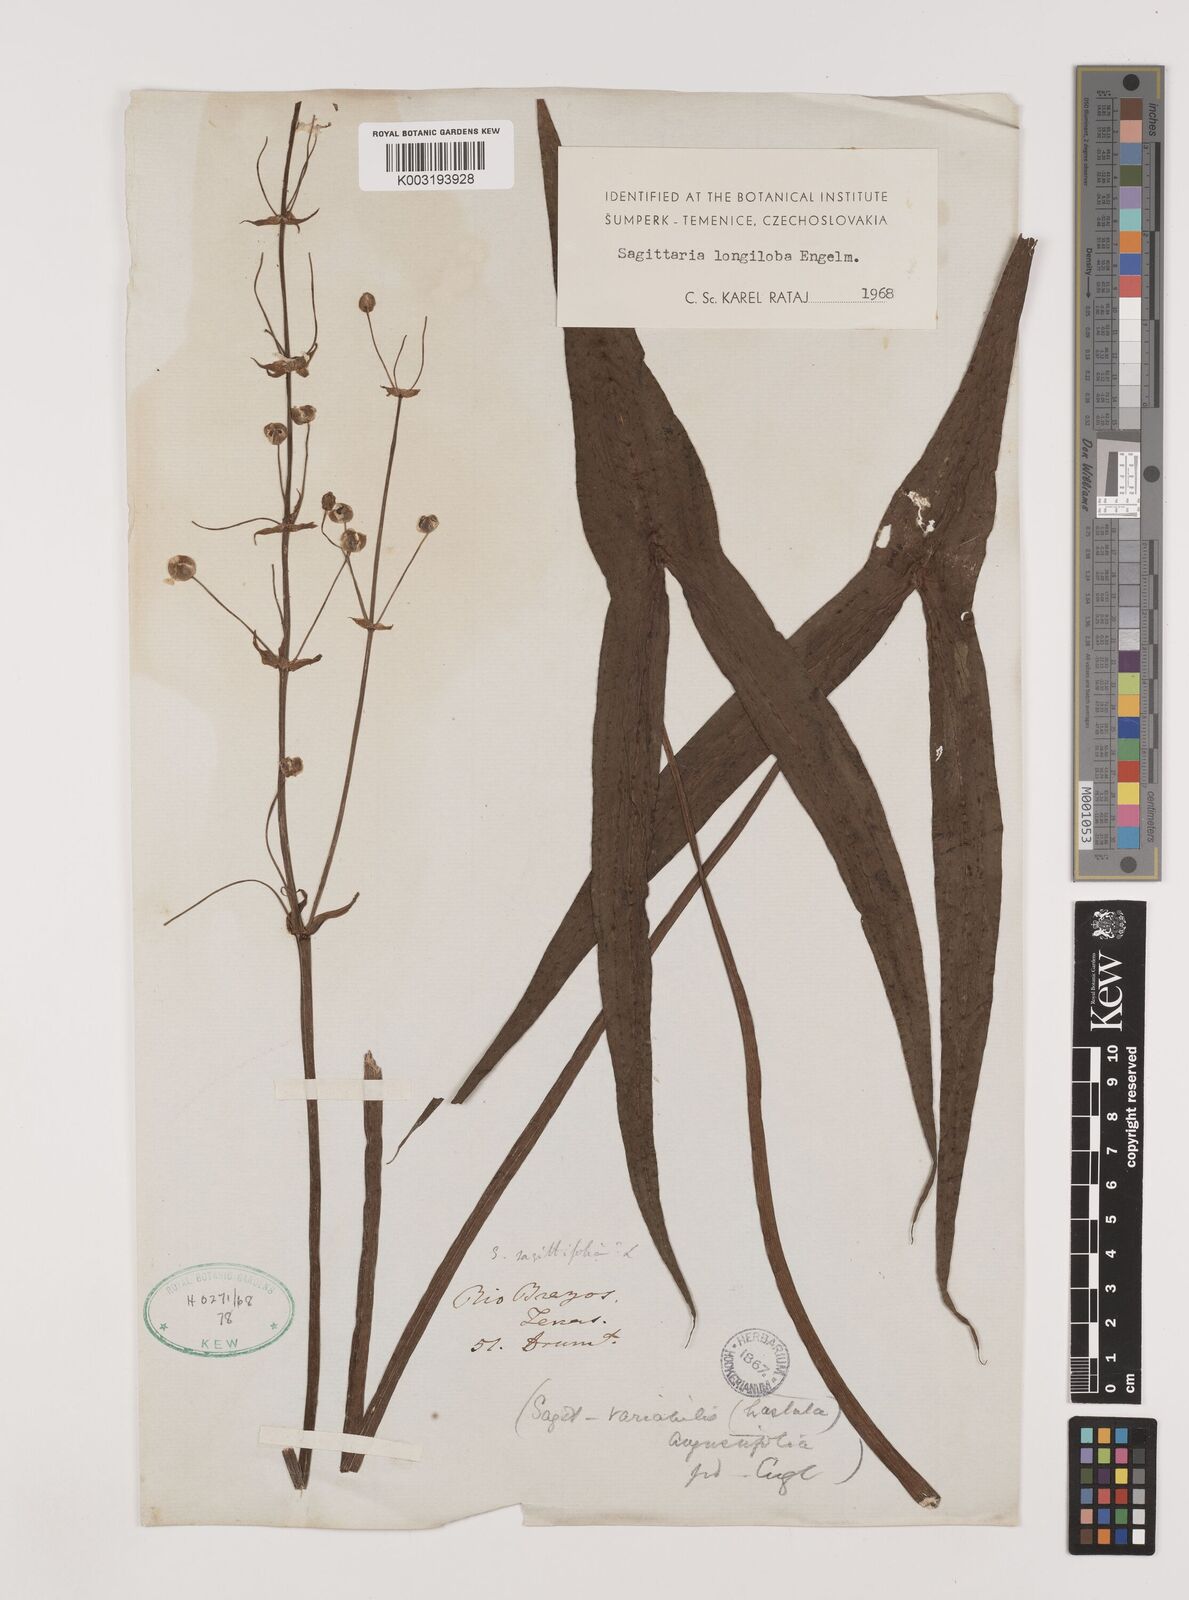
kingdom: Plantae
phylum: Tracheophyta
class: Liliopsida
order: Alismatales
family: Alismataceae
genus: Sagittaria
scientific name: Sagittaria longiloba
